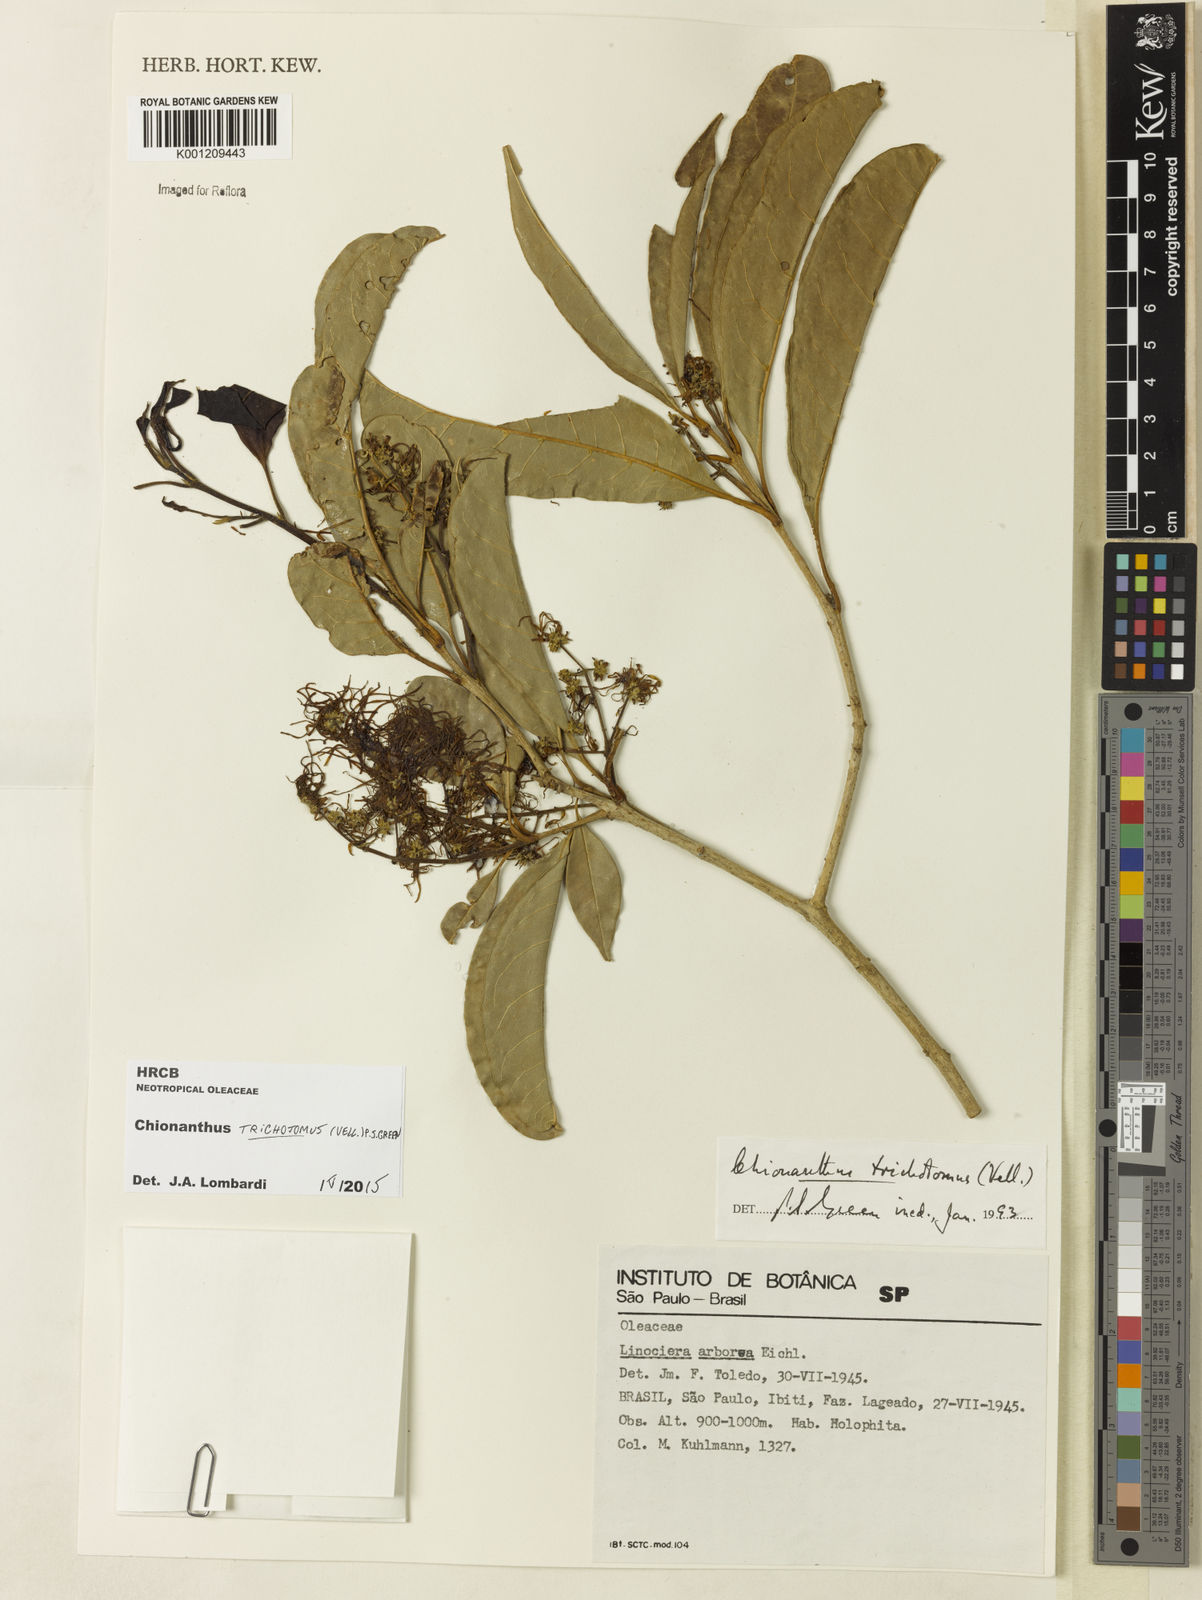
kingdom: Plantae
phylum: Tracheophyta
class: Magnoliopsida
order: Lamiales
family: Oleaceae
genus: Chionanthus
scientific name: Chionanthus trichotomus
